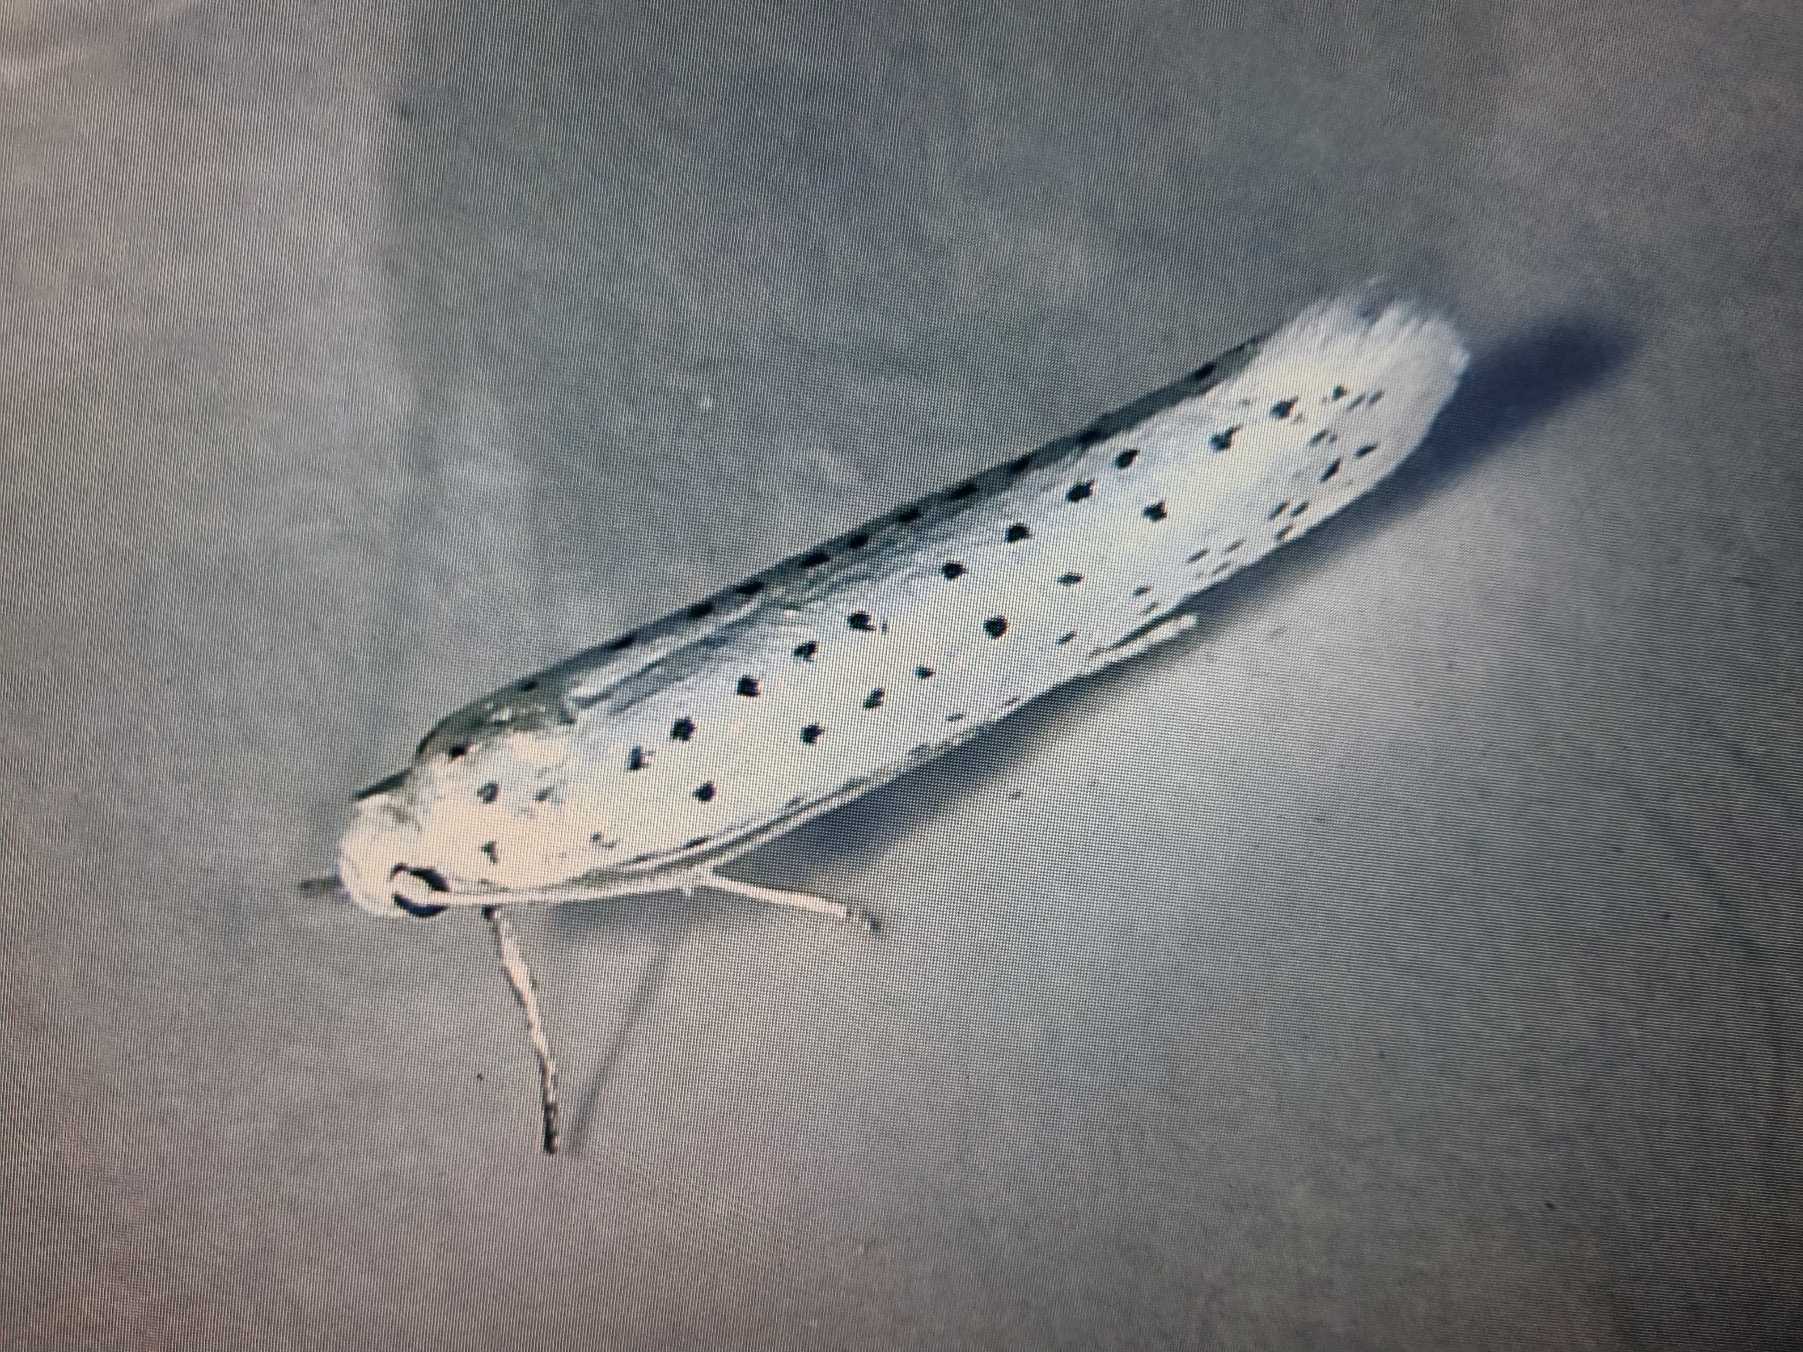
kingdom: Animalia
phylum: Arthropoda
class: Insecta
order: Lepidoptera
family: Yponomeutidae
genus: Yponomeuta
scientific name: Yponomeuta evonymella
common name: Hægspindemøl
